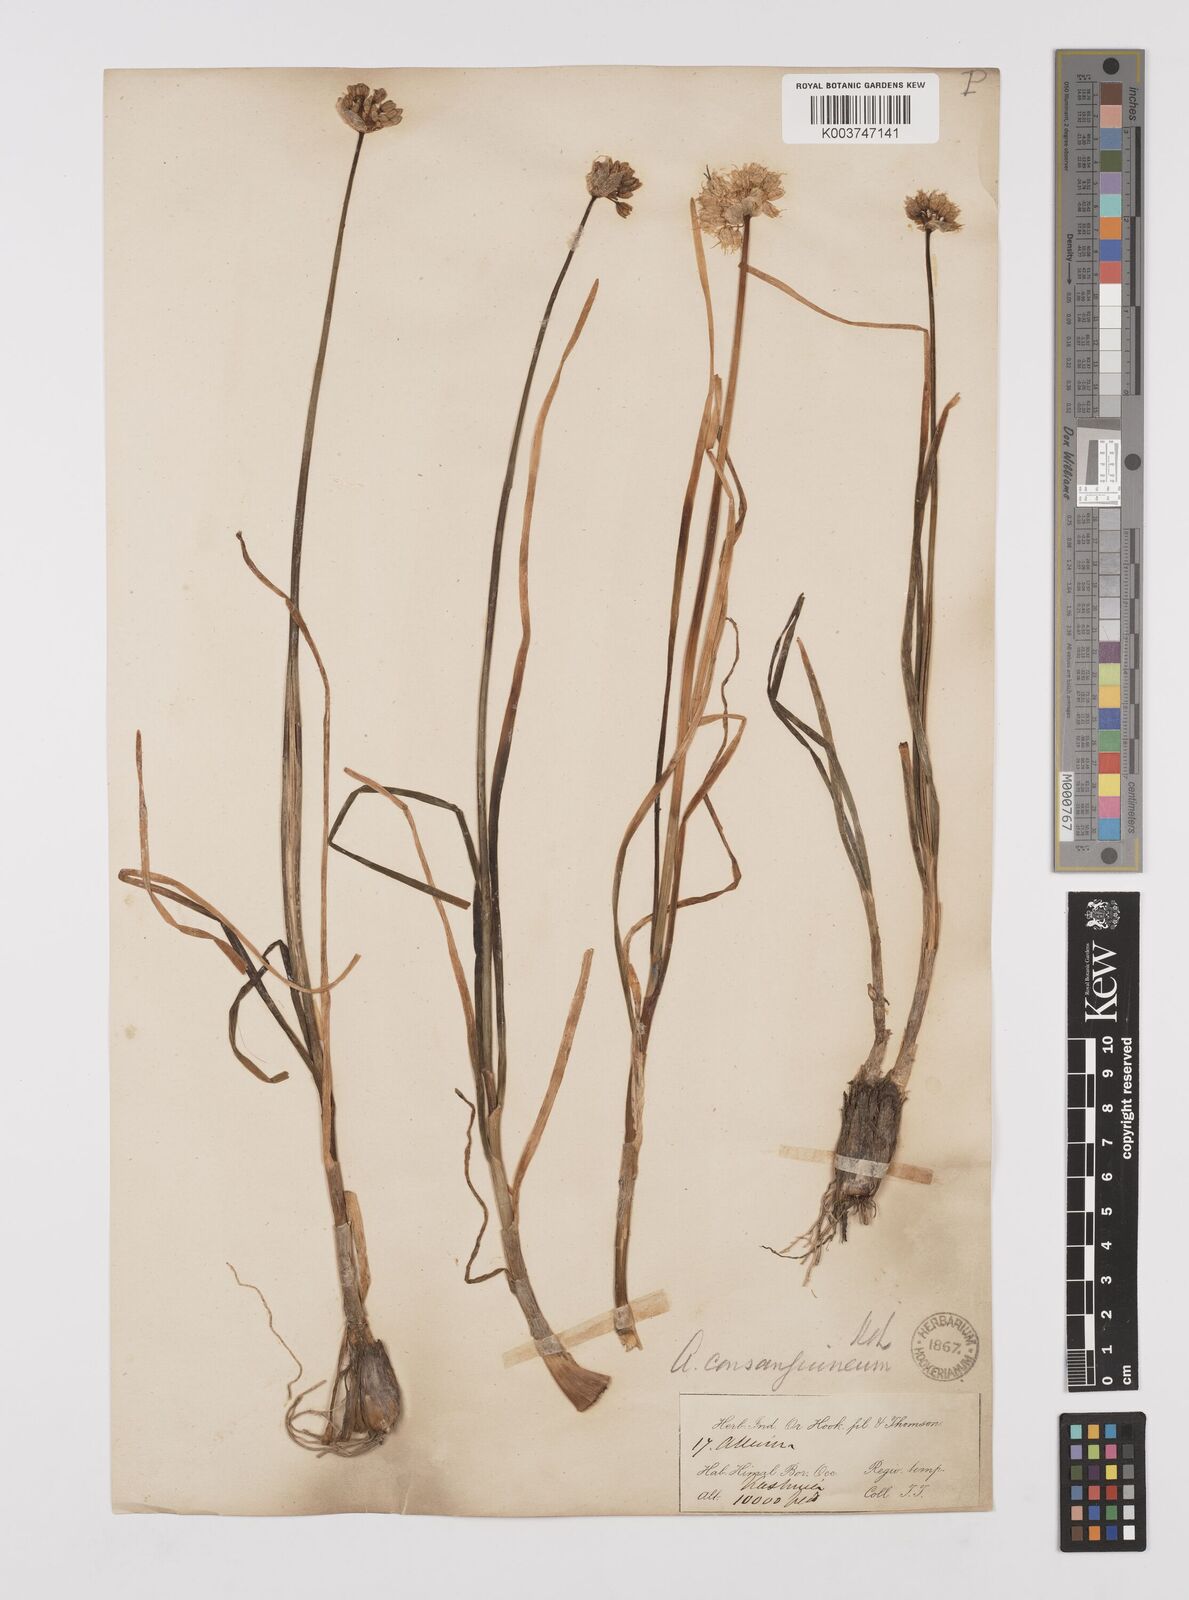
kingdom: Plantae
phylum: Tracheophyta
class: Liliopsida
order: Asparagales
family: Amaryllidaceae
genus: Allium
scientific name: Allium consanguineum
